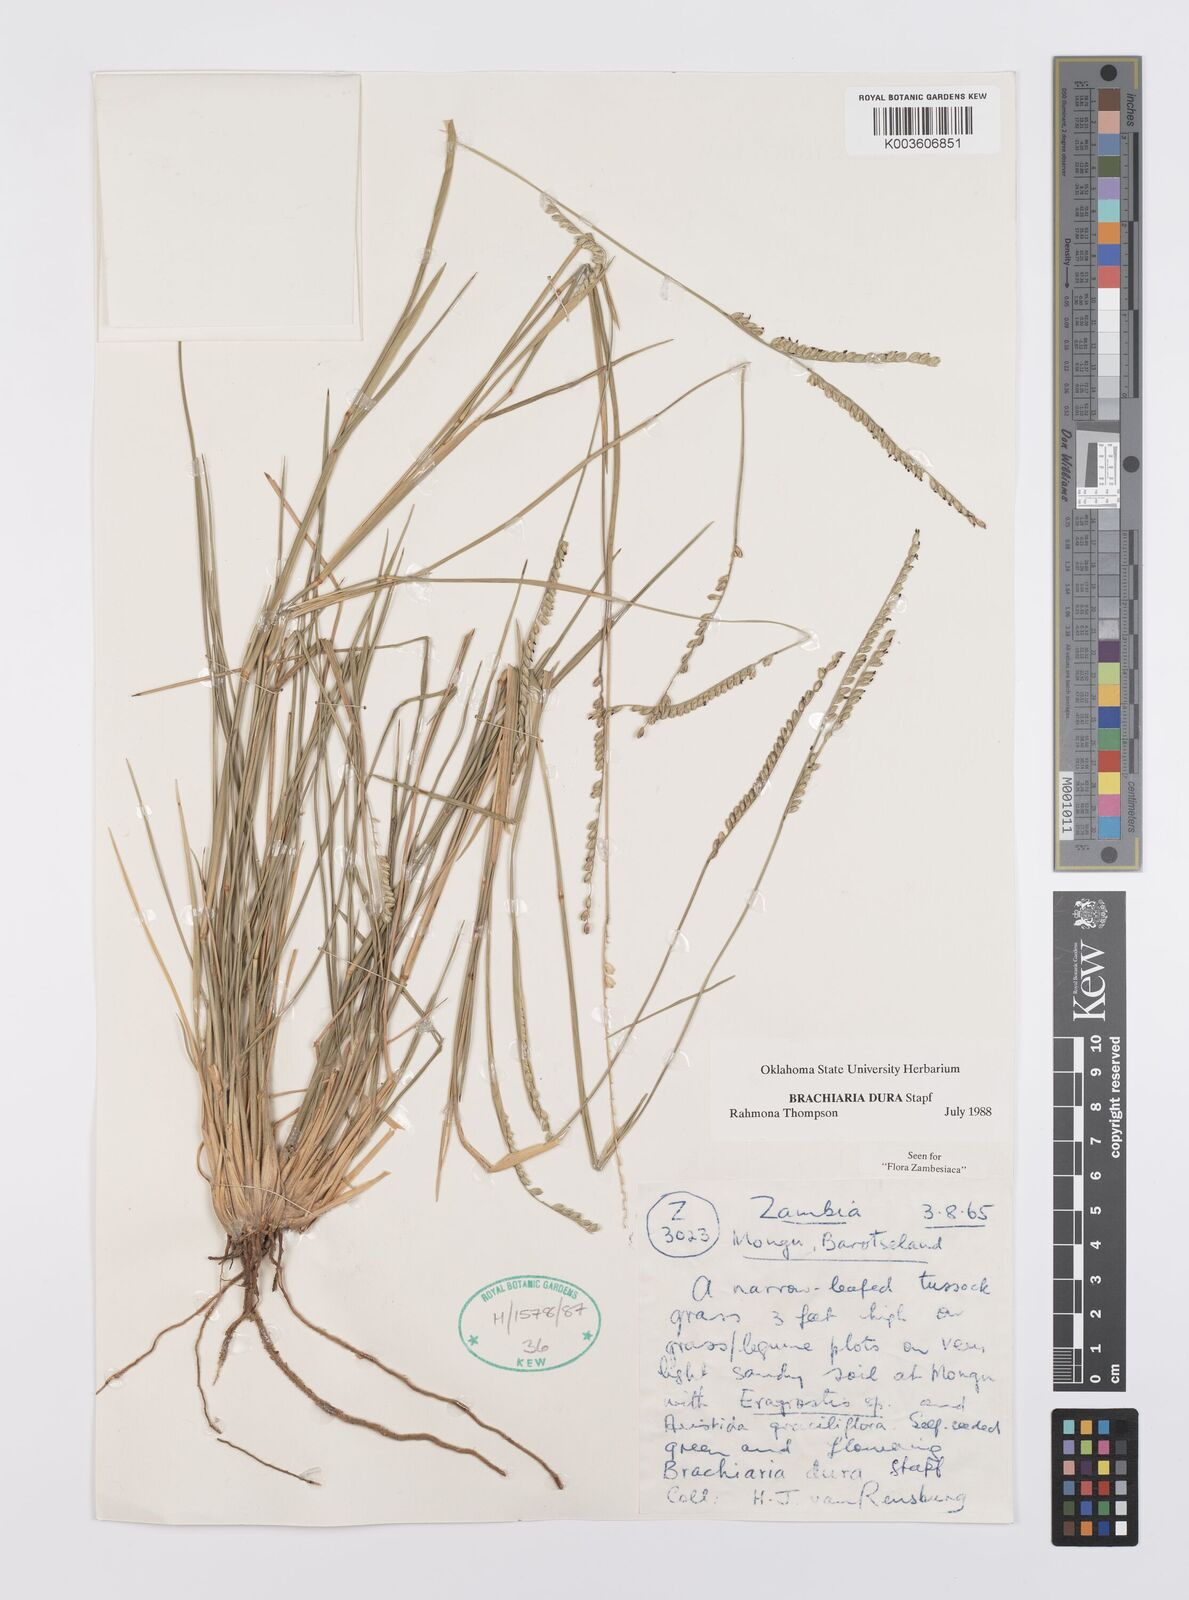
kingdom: Plantae
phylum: Tracheophyta
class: Liliopsida
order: Poales
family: Poaceae
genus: Urochloa
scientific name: Urochloa dura
